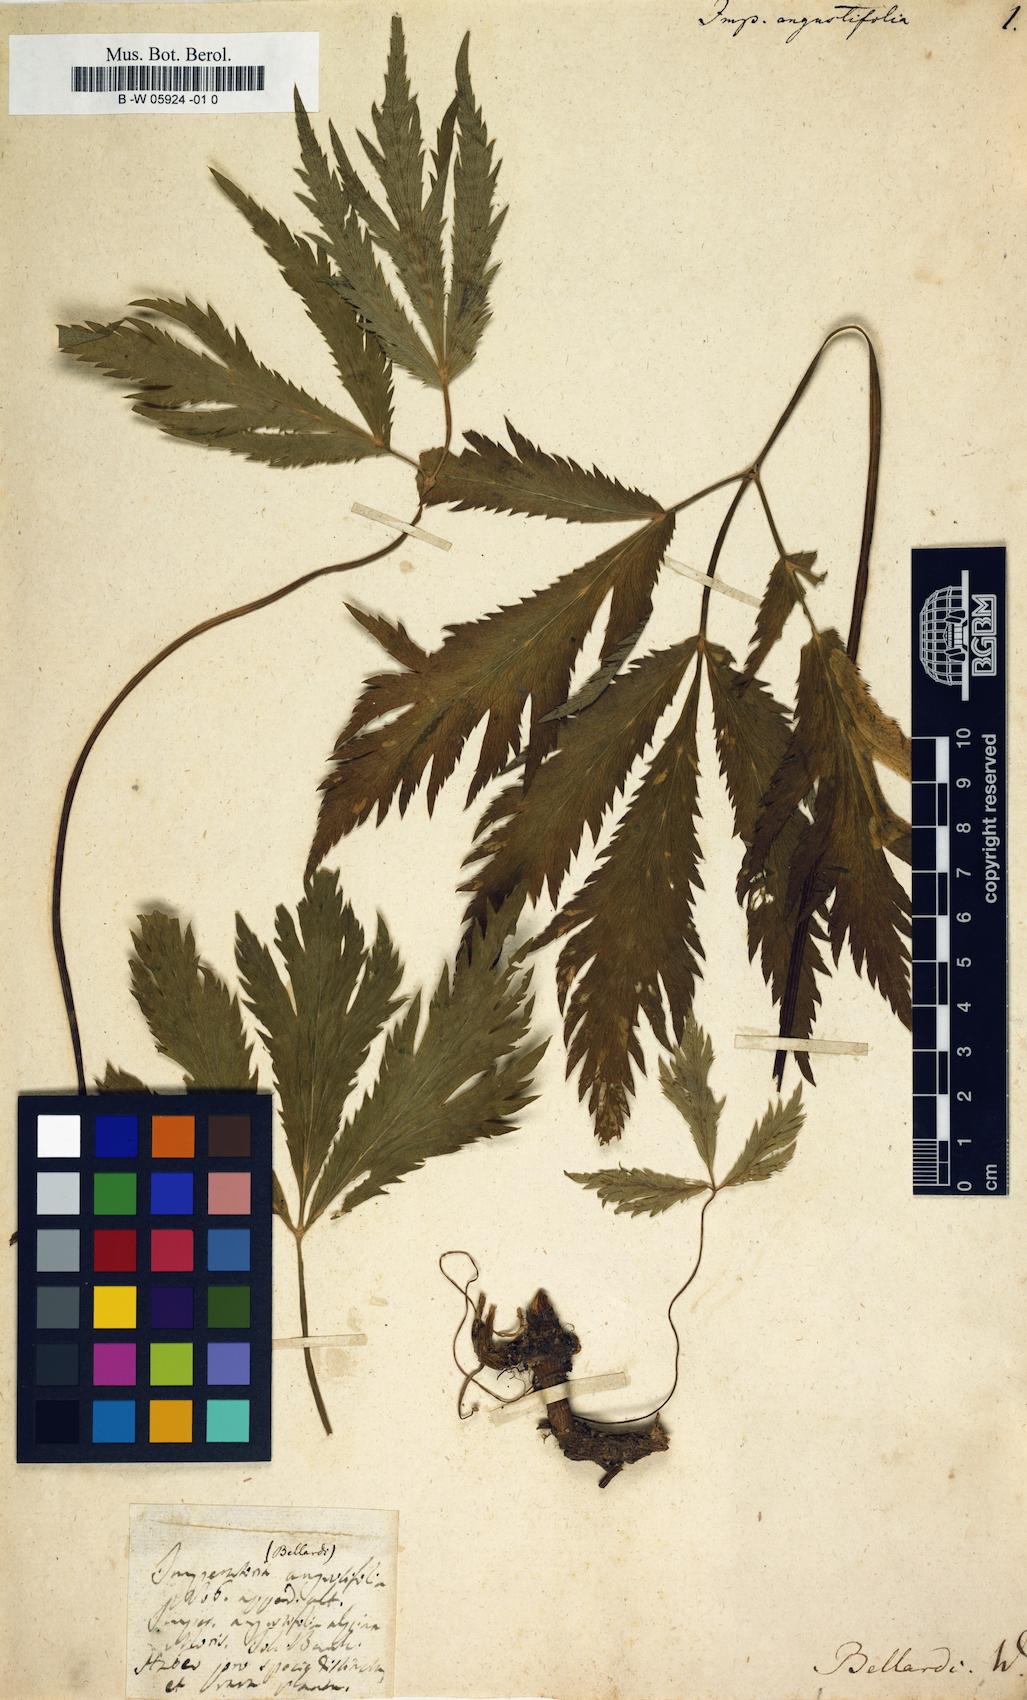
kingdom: Plantae
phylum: Tracheophyta
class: Magnoliopsida
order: Apiales
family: Apiaceae
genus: Imperatoria
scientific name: Imperatoria ostruthium
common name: Masterwort
